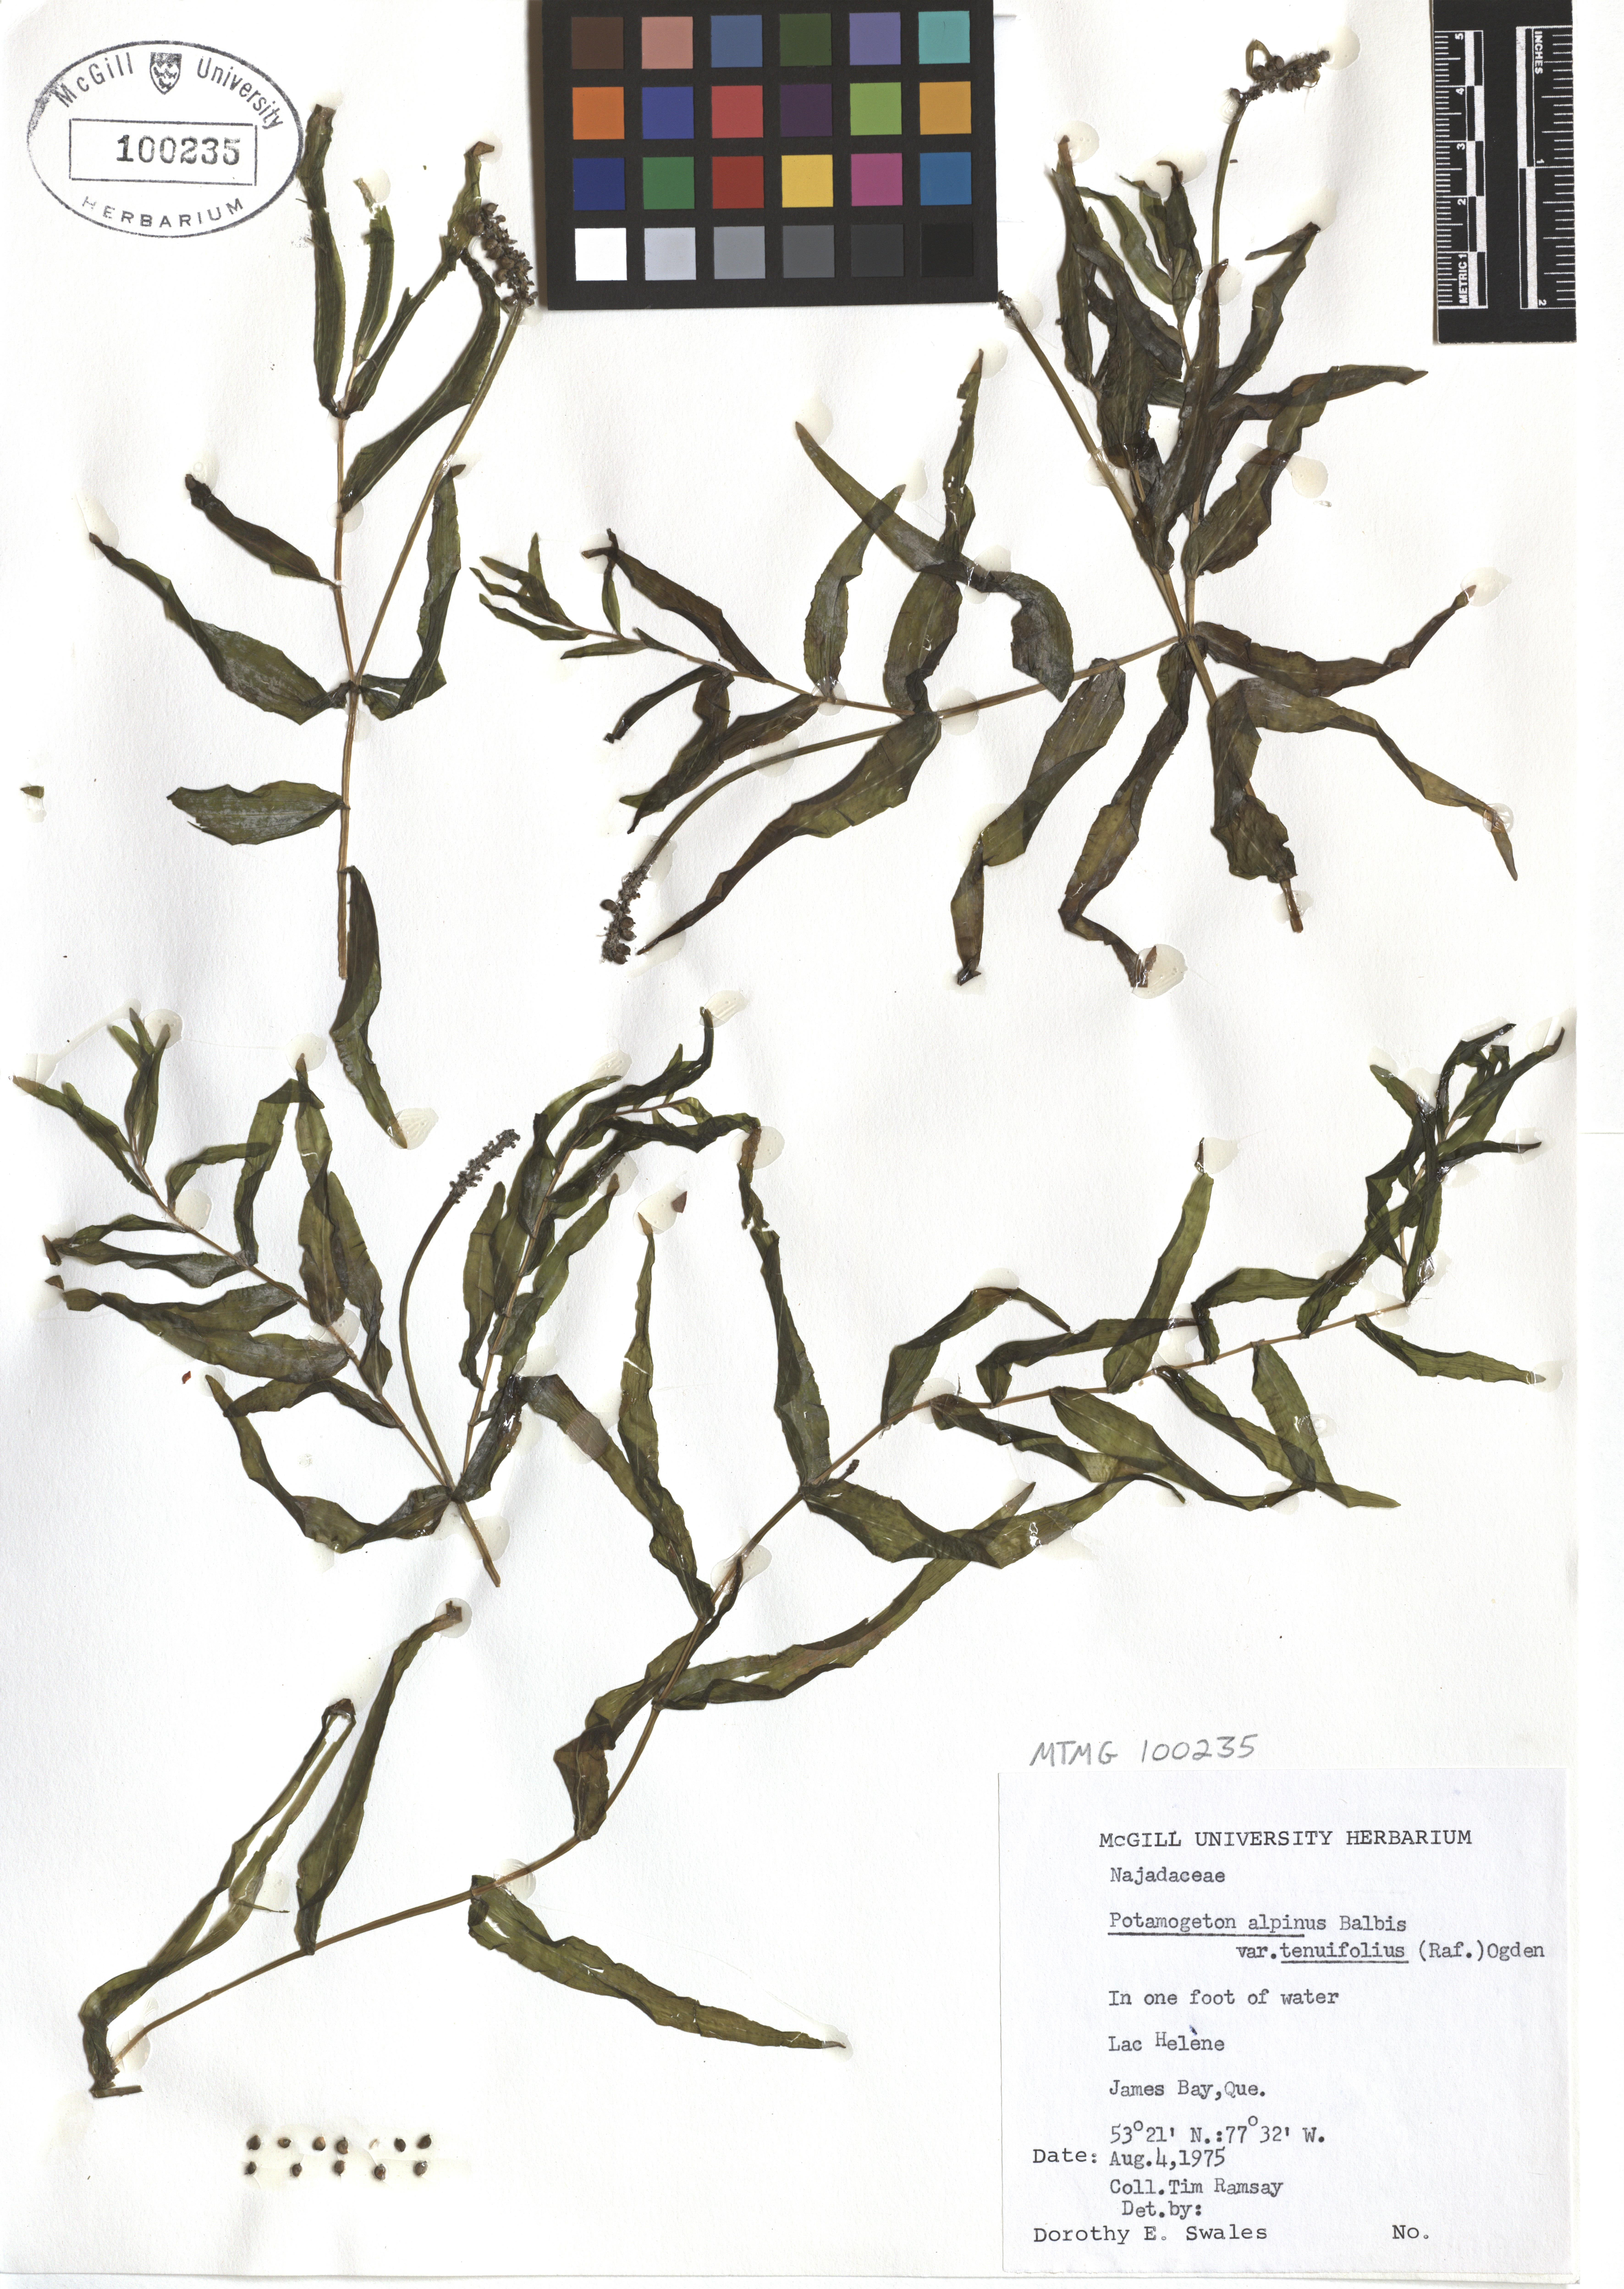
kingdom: Plantae
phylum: Tracheophyta
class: Liliopsida
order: Alismatales
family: Potamogetonaceae
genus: Potamogeton
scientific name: Potamogeton alpinus
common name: Red pondweed
